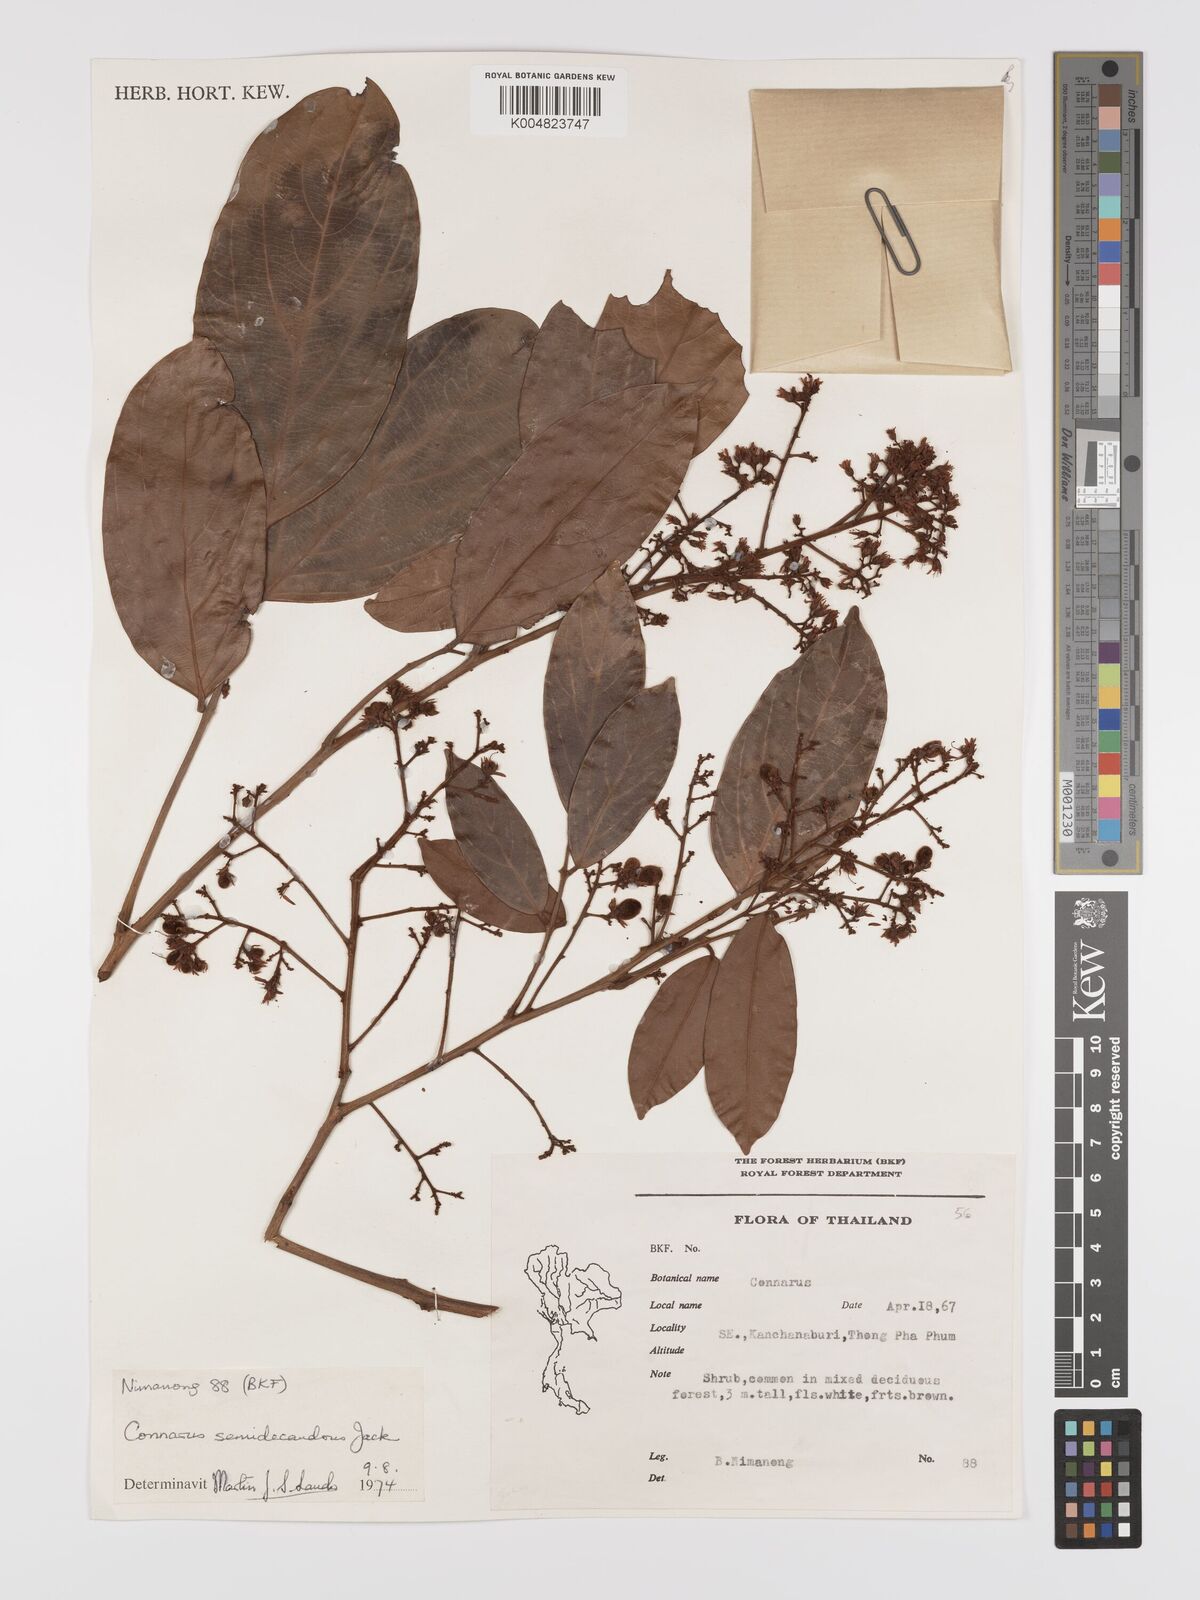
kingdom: Plantae
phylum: Tracheophyta
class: Magnoliopsida
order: Oxalidales
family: Connaraceae
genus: Connarus
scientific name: Connarus semidecandrus
